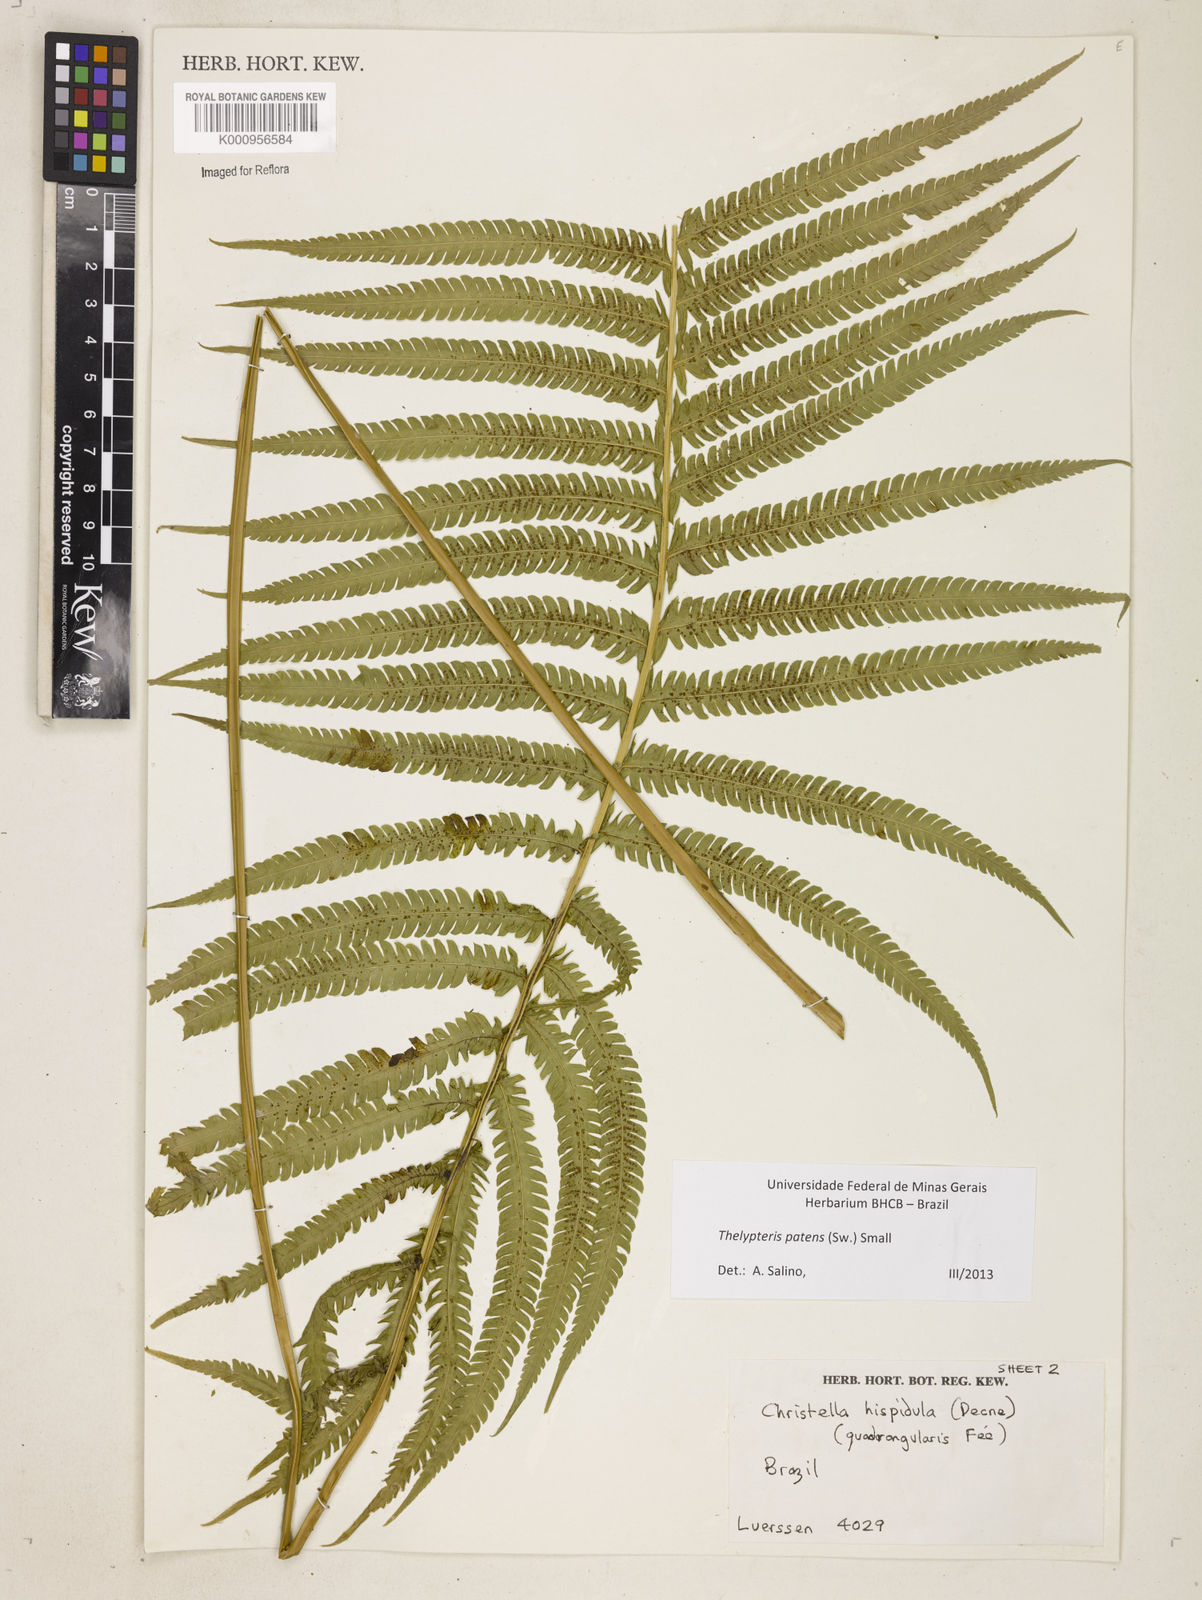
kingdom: Plantae
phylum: Tracheophyta
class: Polypodiopsida
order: Polypodiales
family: Thelypteridaceae
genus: Pelazoneuron
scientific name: Pelazoneuron patens
